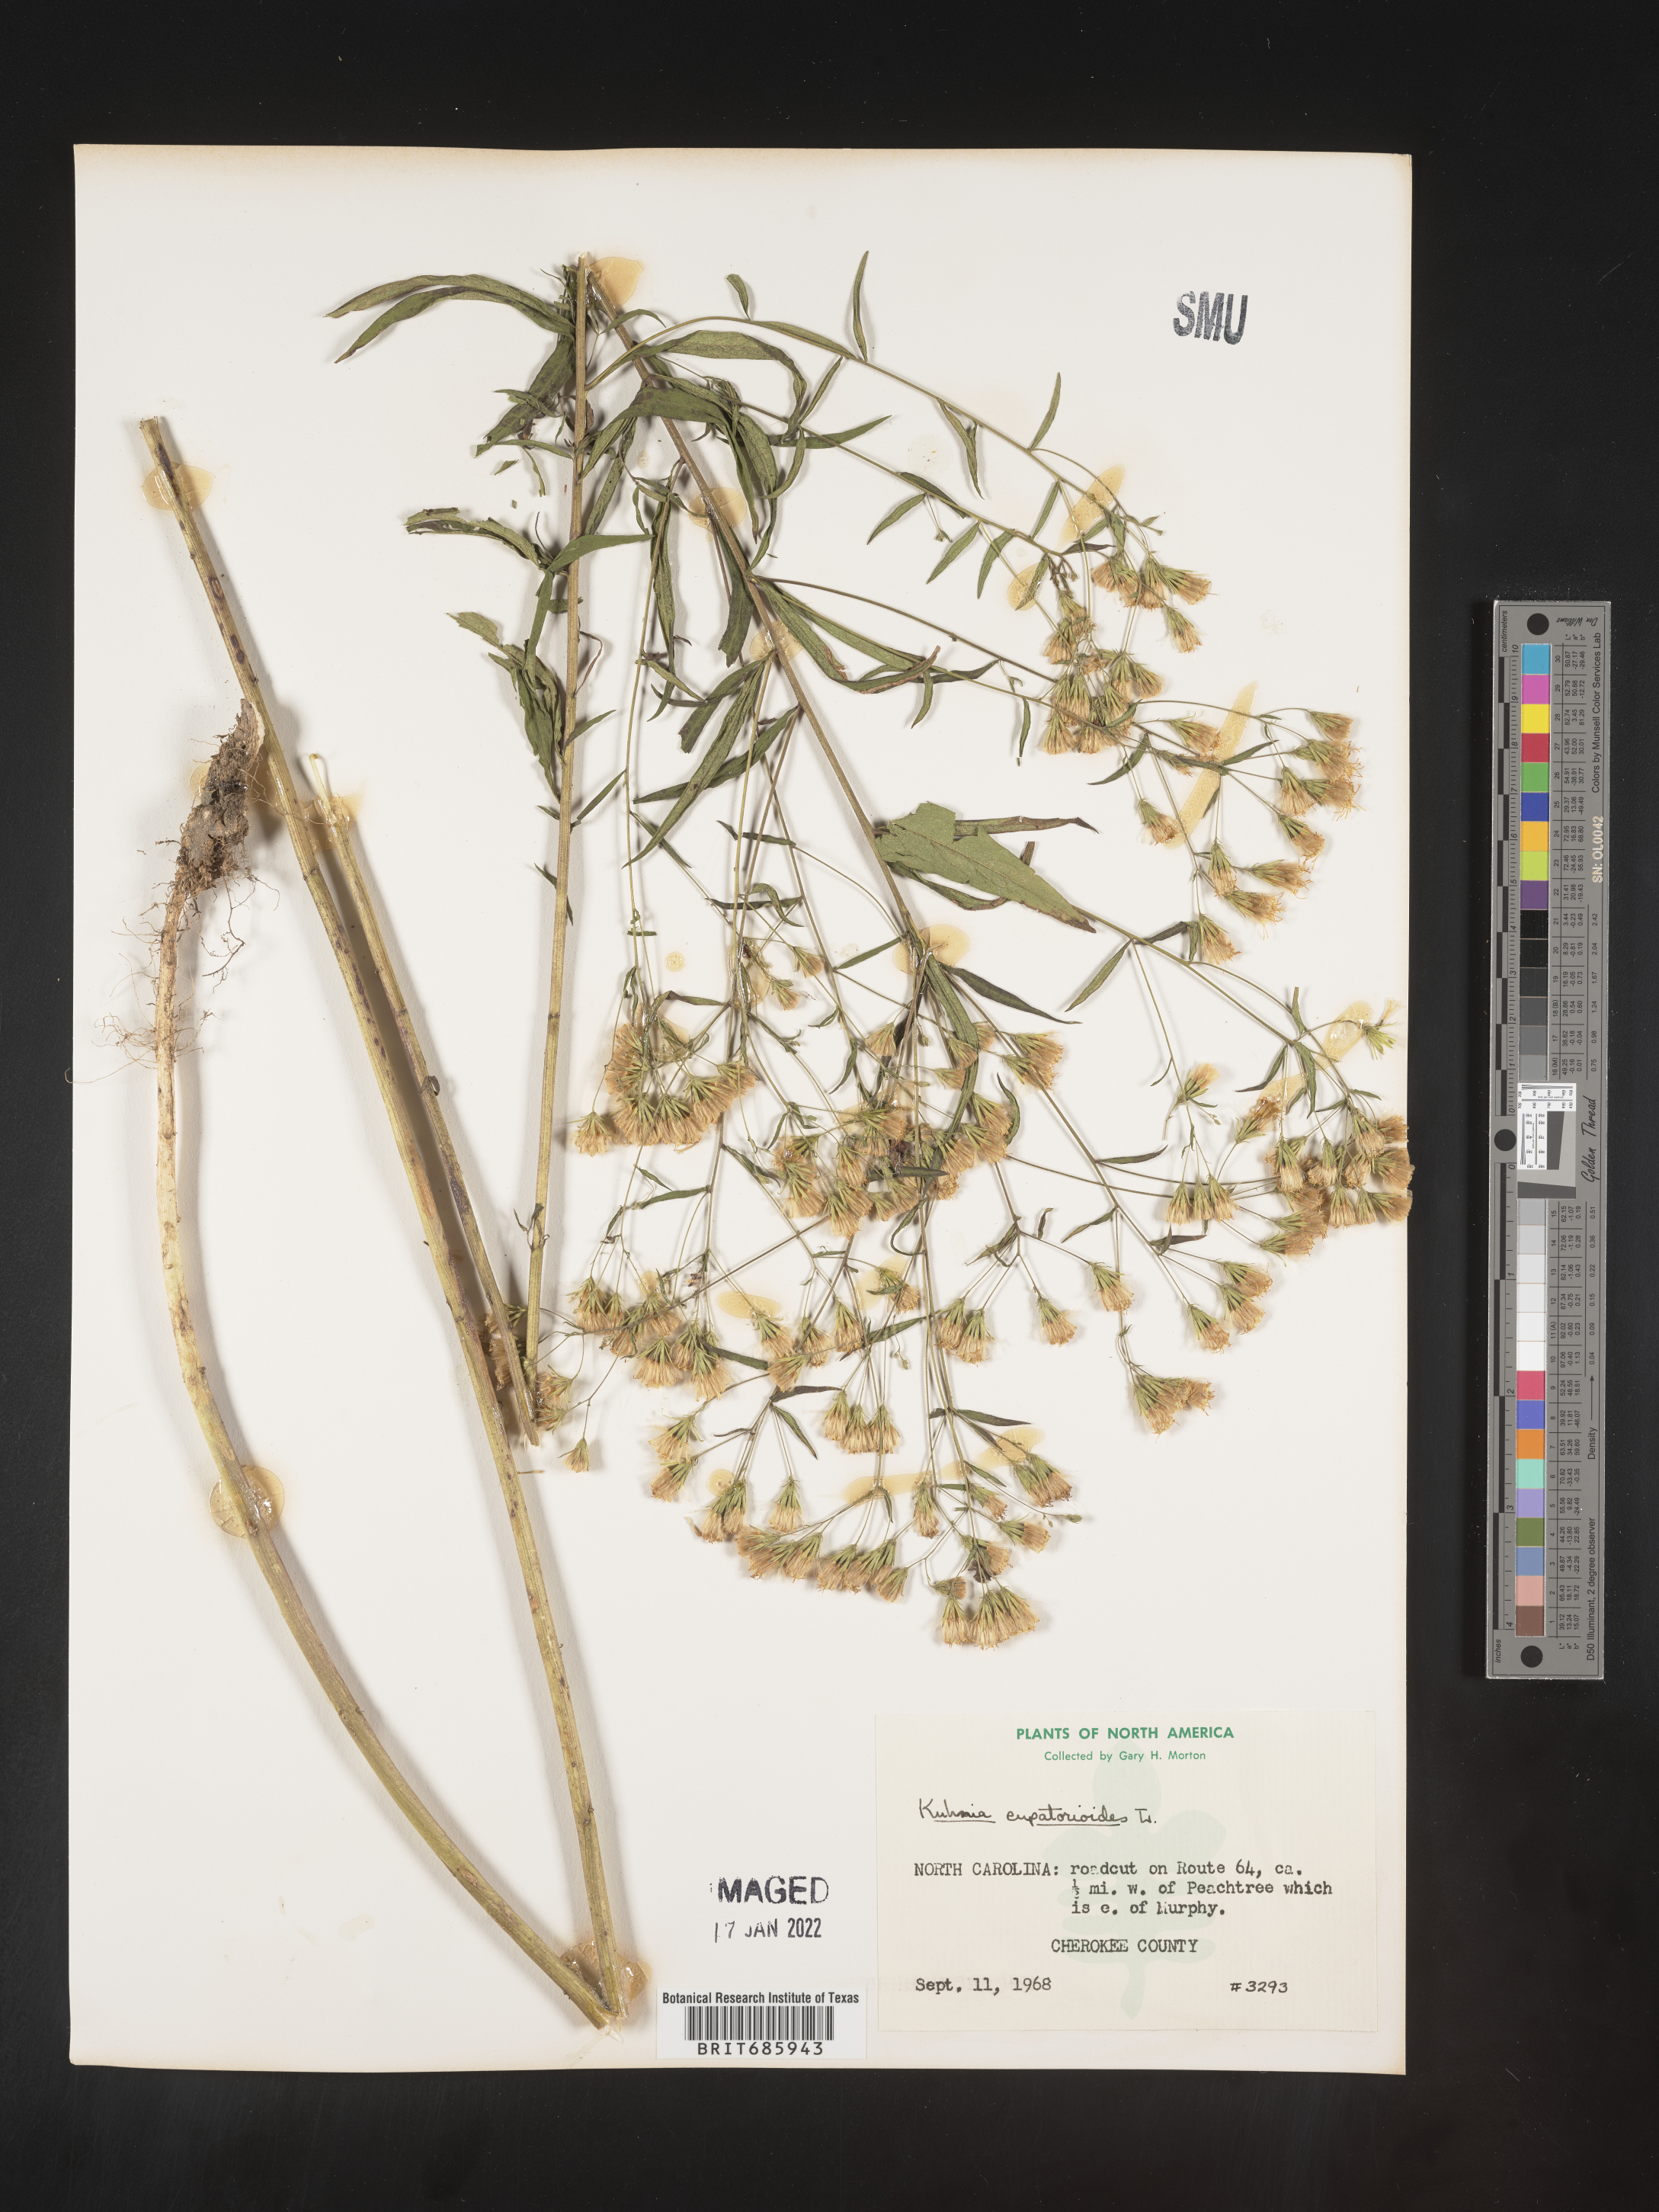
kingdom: Plantae
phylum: Tracheophyta
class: Magnoliopsida
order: Asterales
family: Asteraceae
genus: Brickellia
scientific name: Brickellia eupatorioides
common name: False boneset
